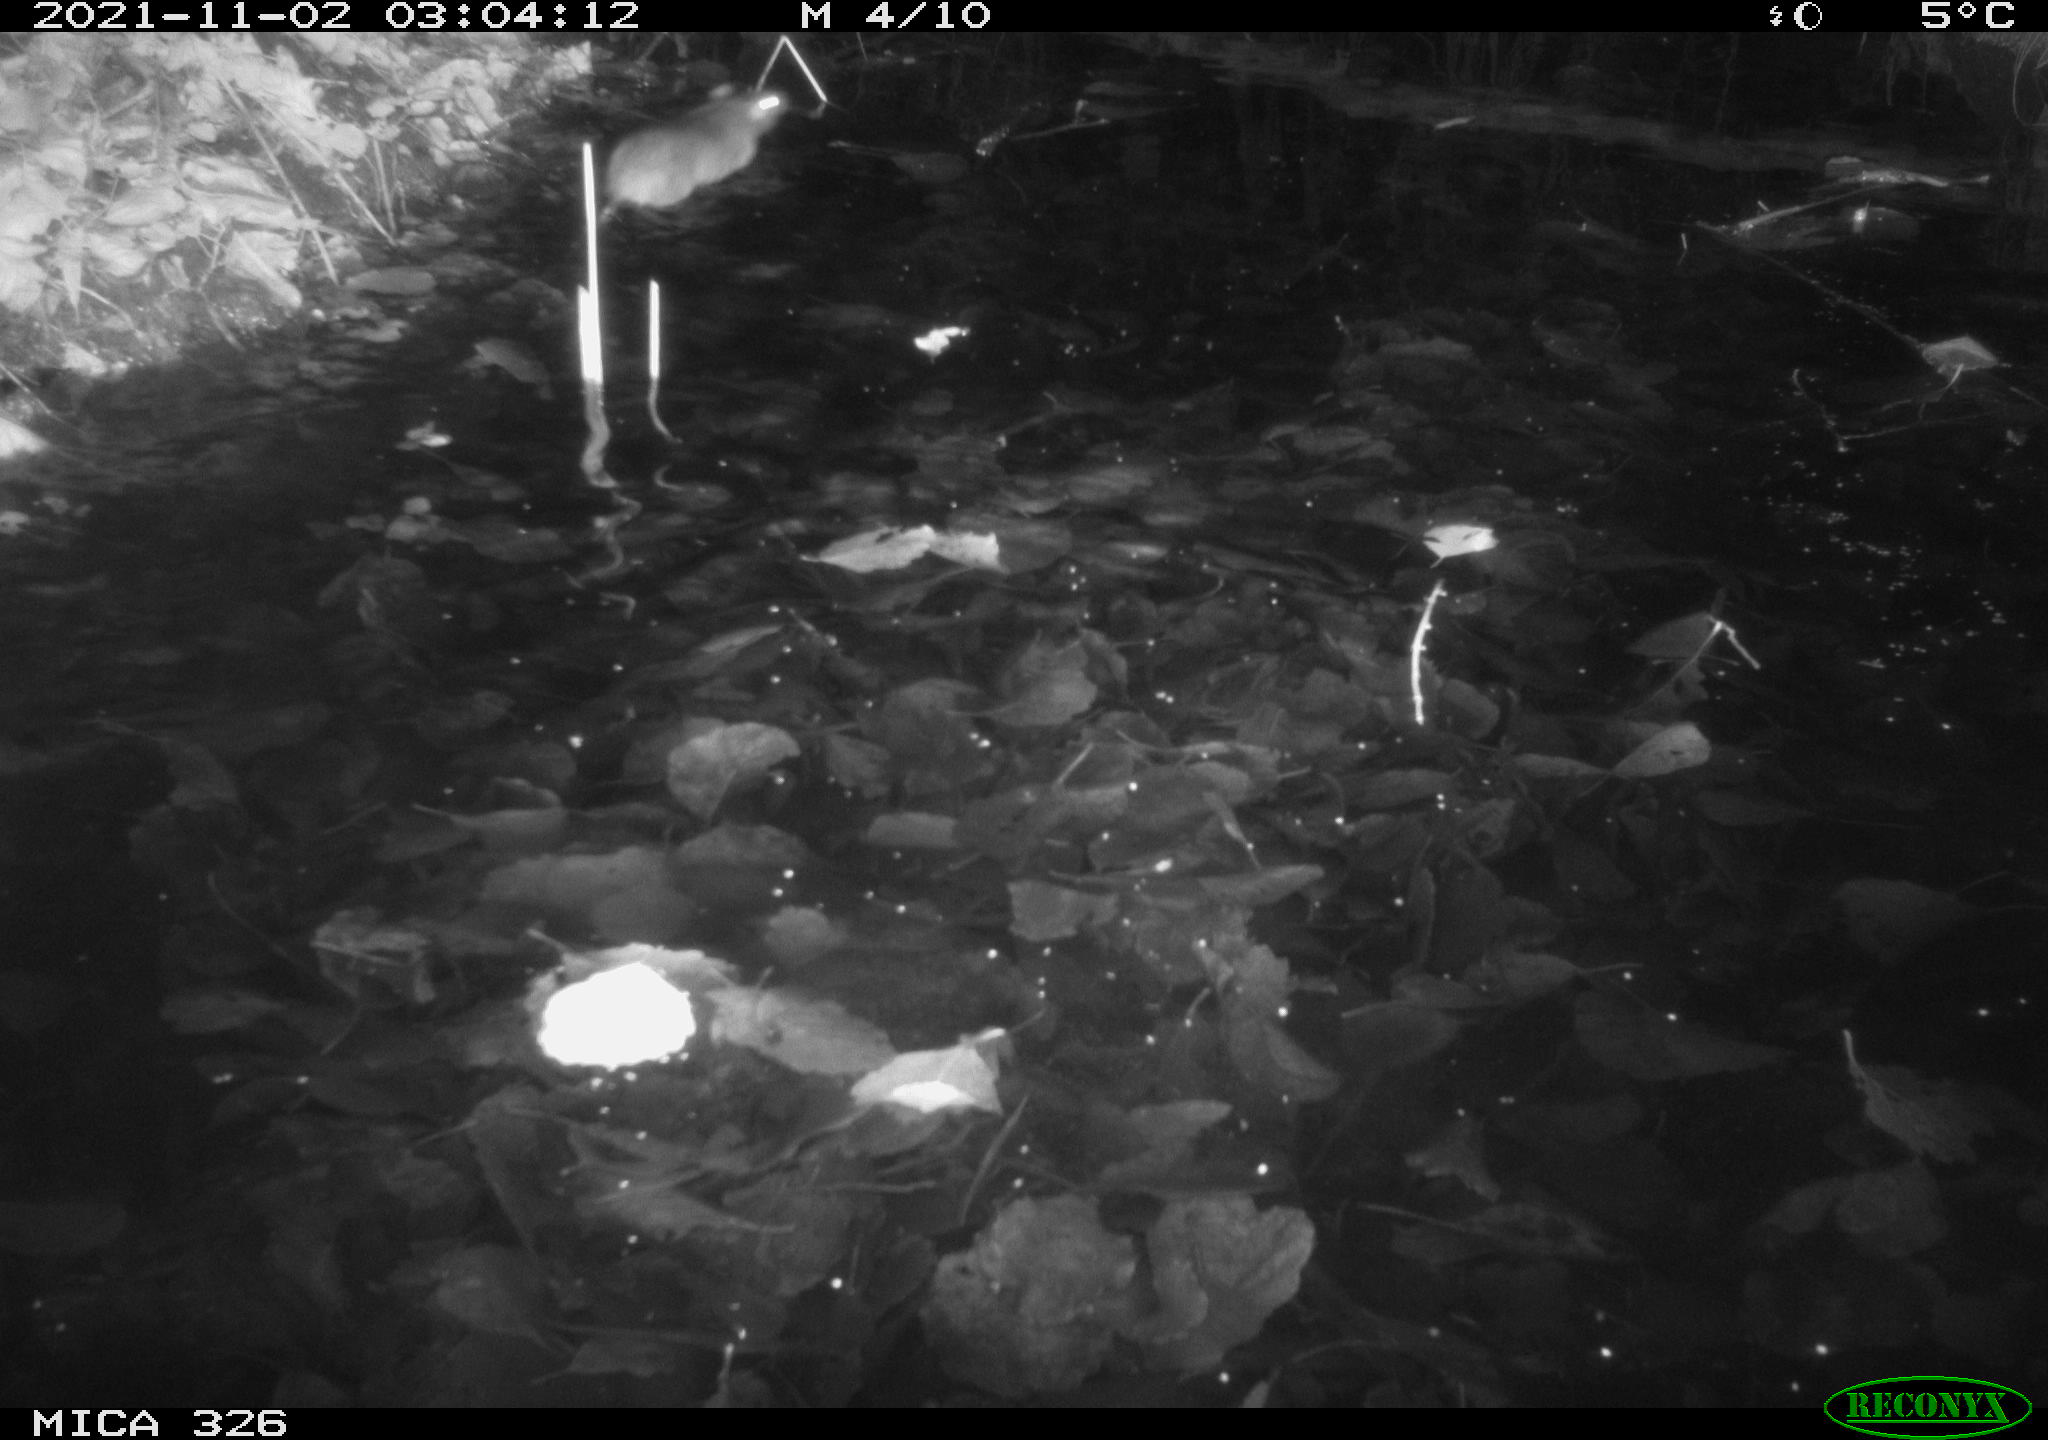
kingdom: Animalia
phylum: Chordata
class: Mammalia
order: Rodentia
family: Muridae
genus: Rattus
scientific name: Rattus norvegicus
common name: Brown rat
